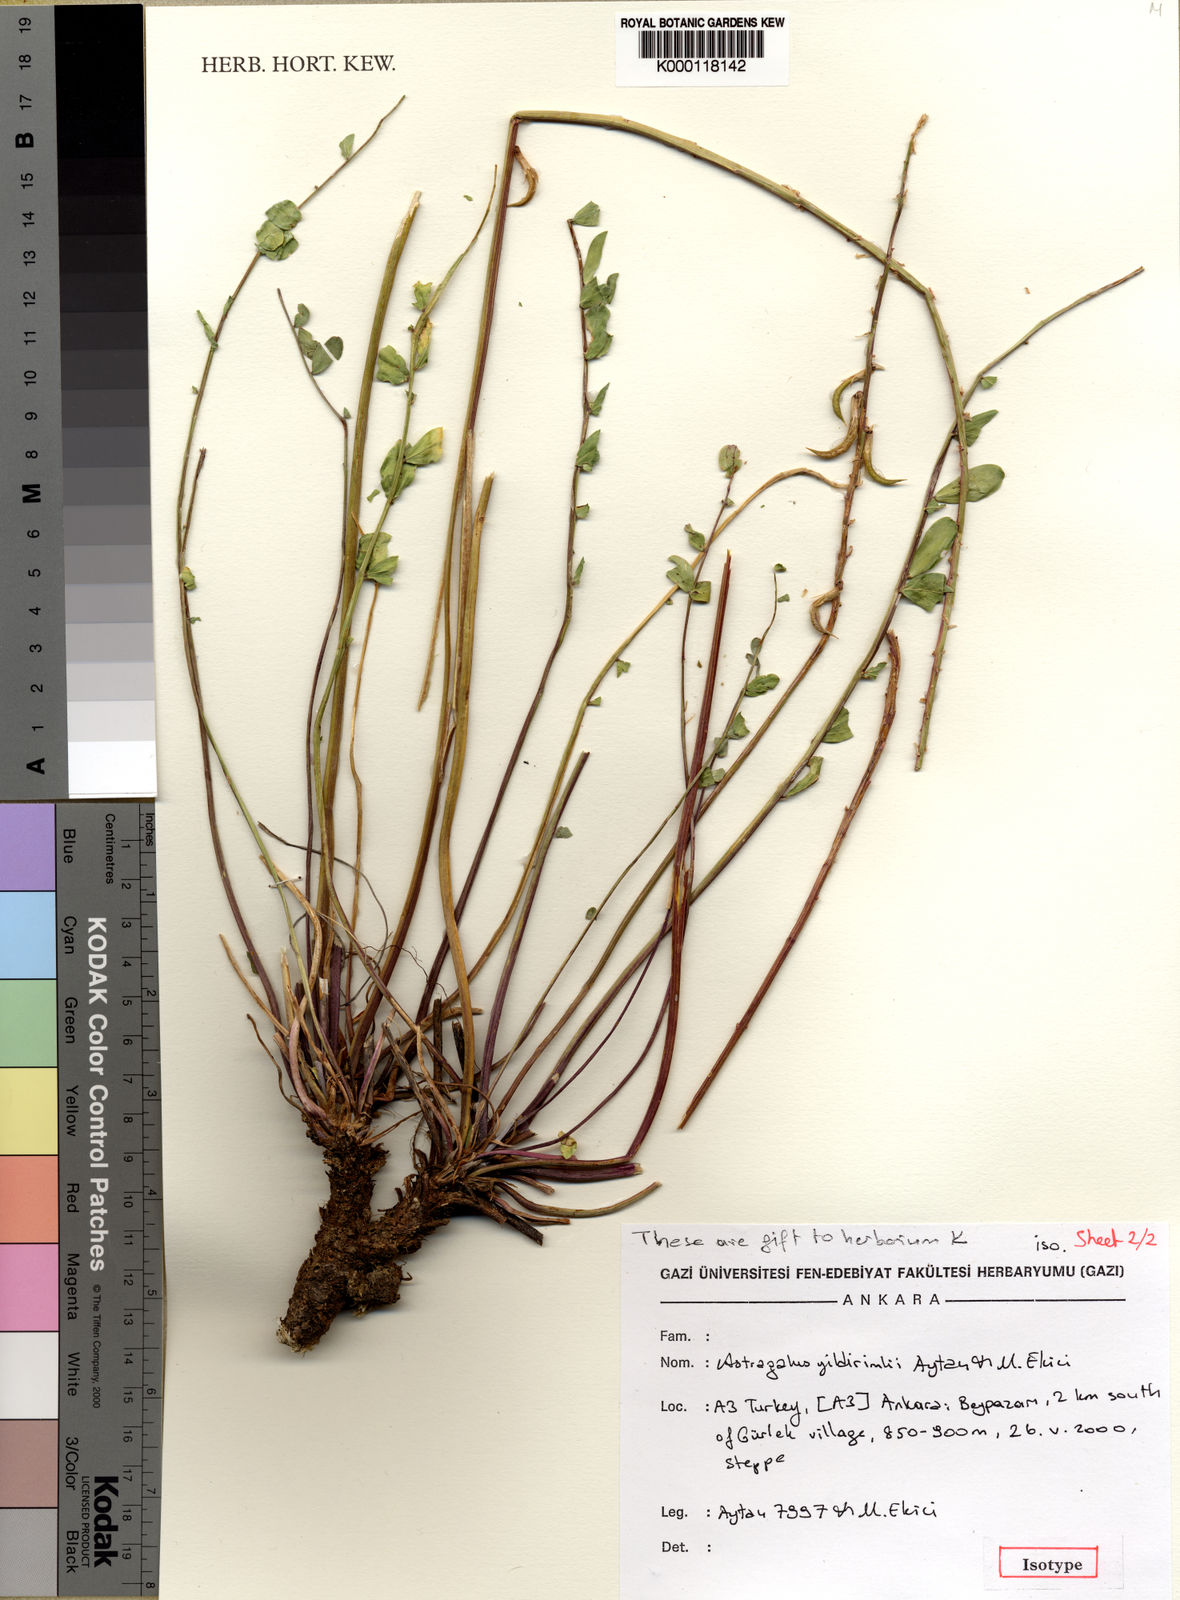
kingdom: Plantae
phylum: Tracheophyta
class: Magnoliopsida
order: Fabales
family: Fabaceae
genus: Astragalus
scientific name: Astragalus
